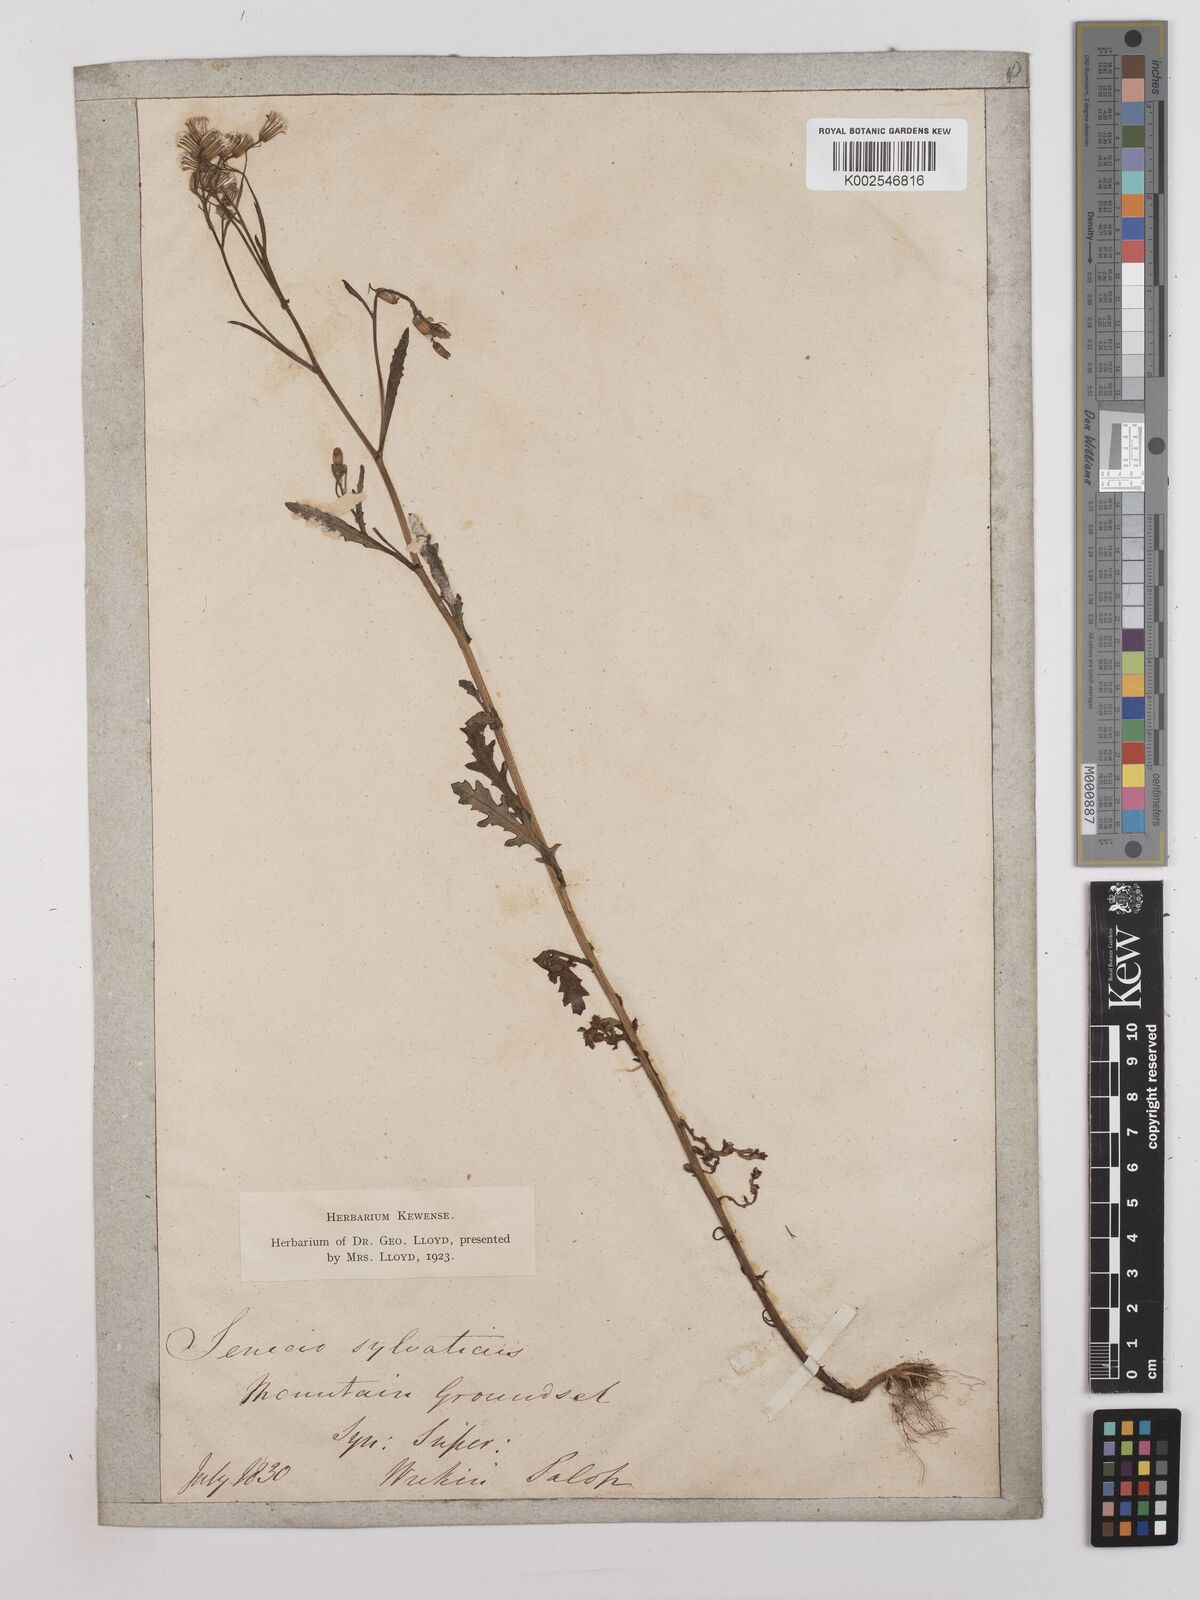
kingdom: Plantae
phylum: Tracheophyta
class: Magnoliopsida
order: Asterales
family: Asteraceae
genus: Senecio
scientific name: Senecio sylvaticus
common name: Woodland ragwort
